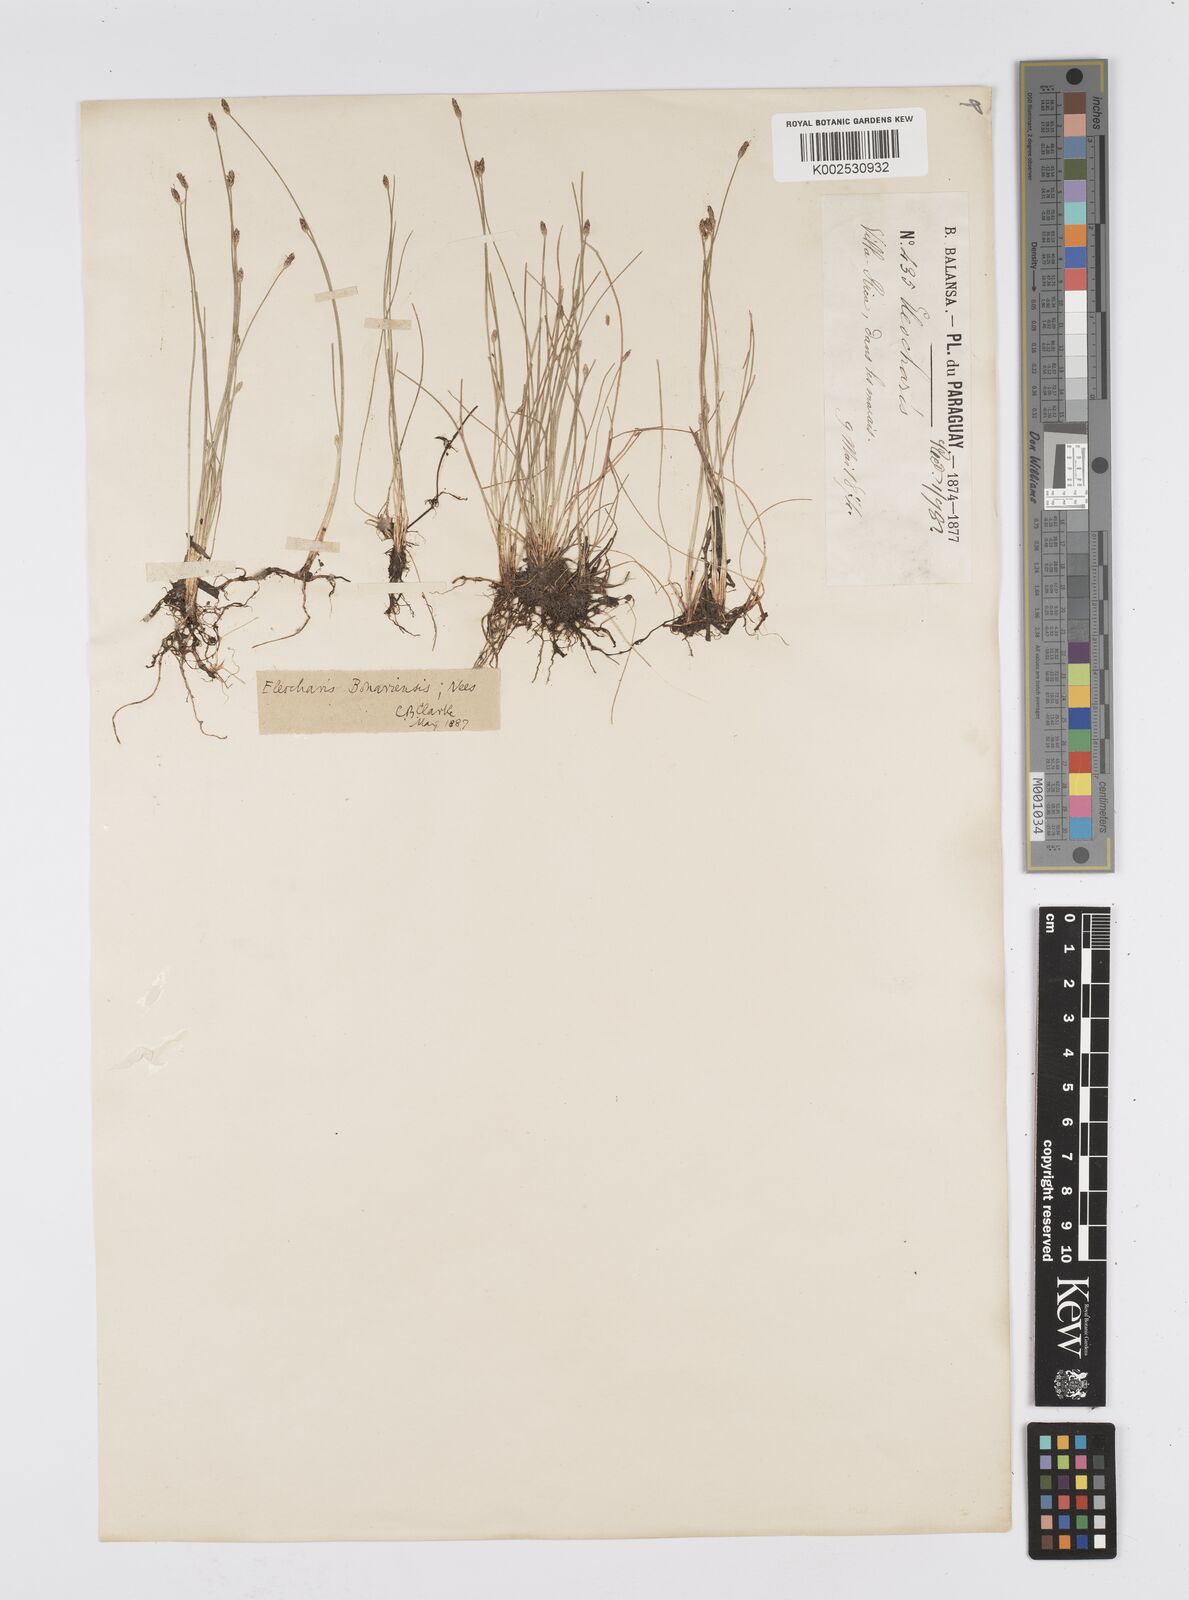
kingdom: Plantae
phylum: Tracheophyta
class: Liliopsida
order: Poales
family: Cyperaceae
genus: Eleocharis
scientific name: Eleocharis bonariensis
